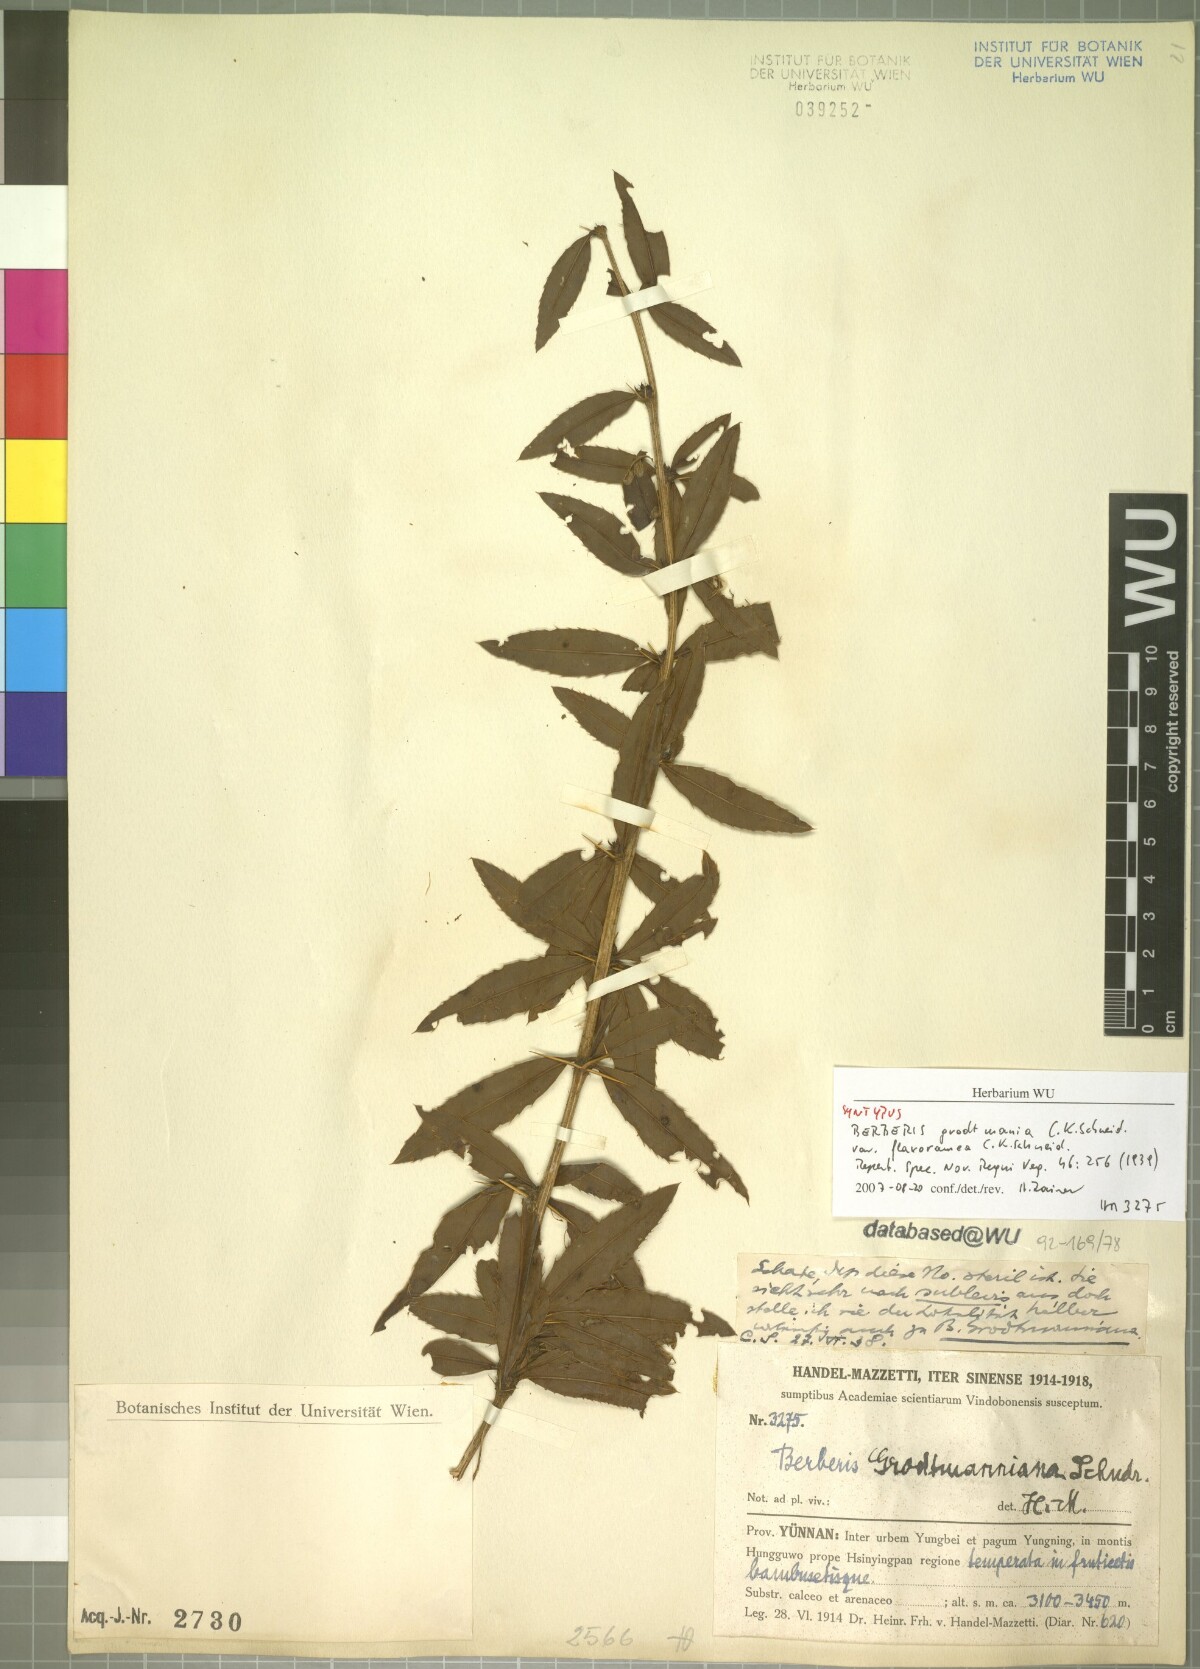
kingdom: Plantae
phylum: Tracheophyta
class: Magnoliopsida
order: Ranunculales
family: Berberidaceae
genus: Berberis
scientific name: Berberis grodtmanniana
